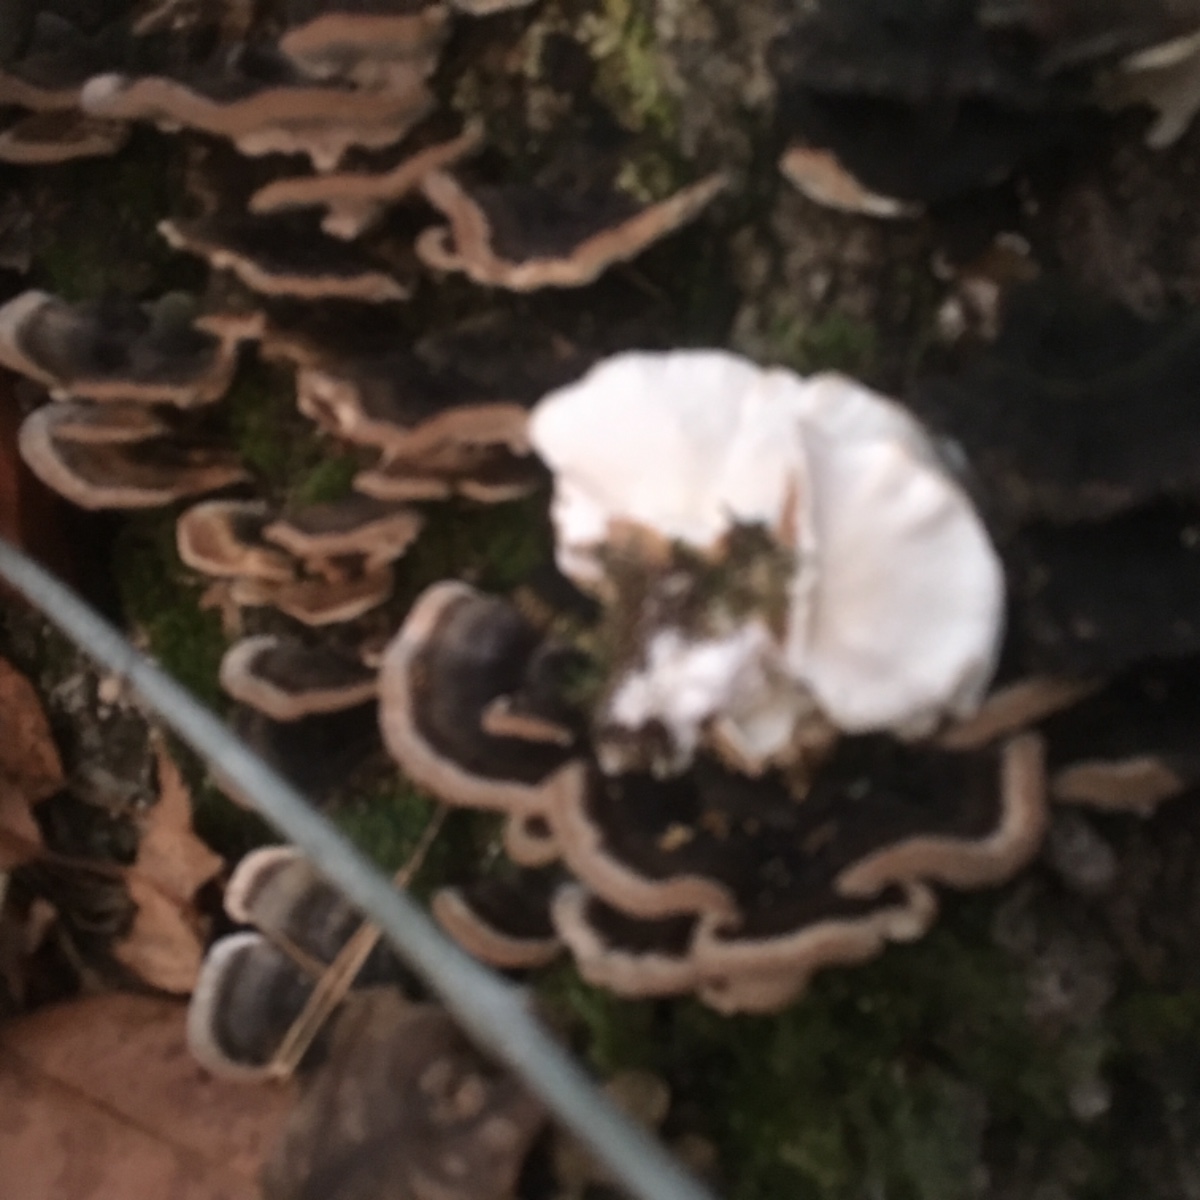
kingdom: Fungi
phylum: Basidiomycota
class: Agaricomycetes
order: Polyporales
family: Polyporaceae
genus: Trametes
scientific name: Trametes versicolor
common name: broget læderporesvamp
